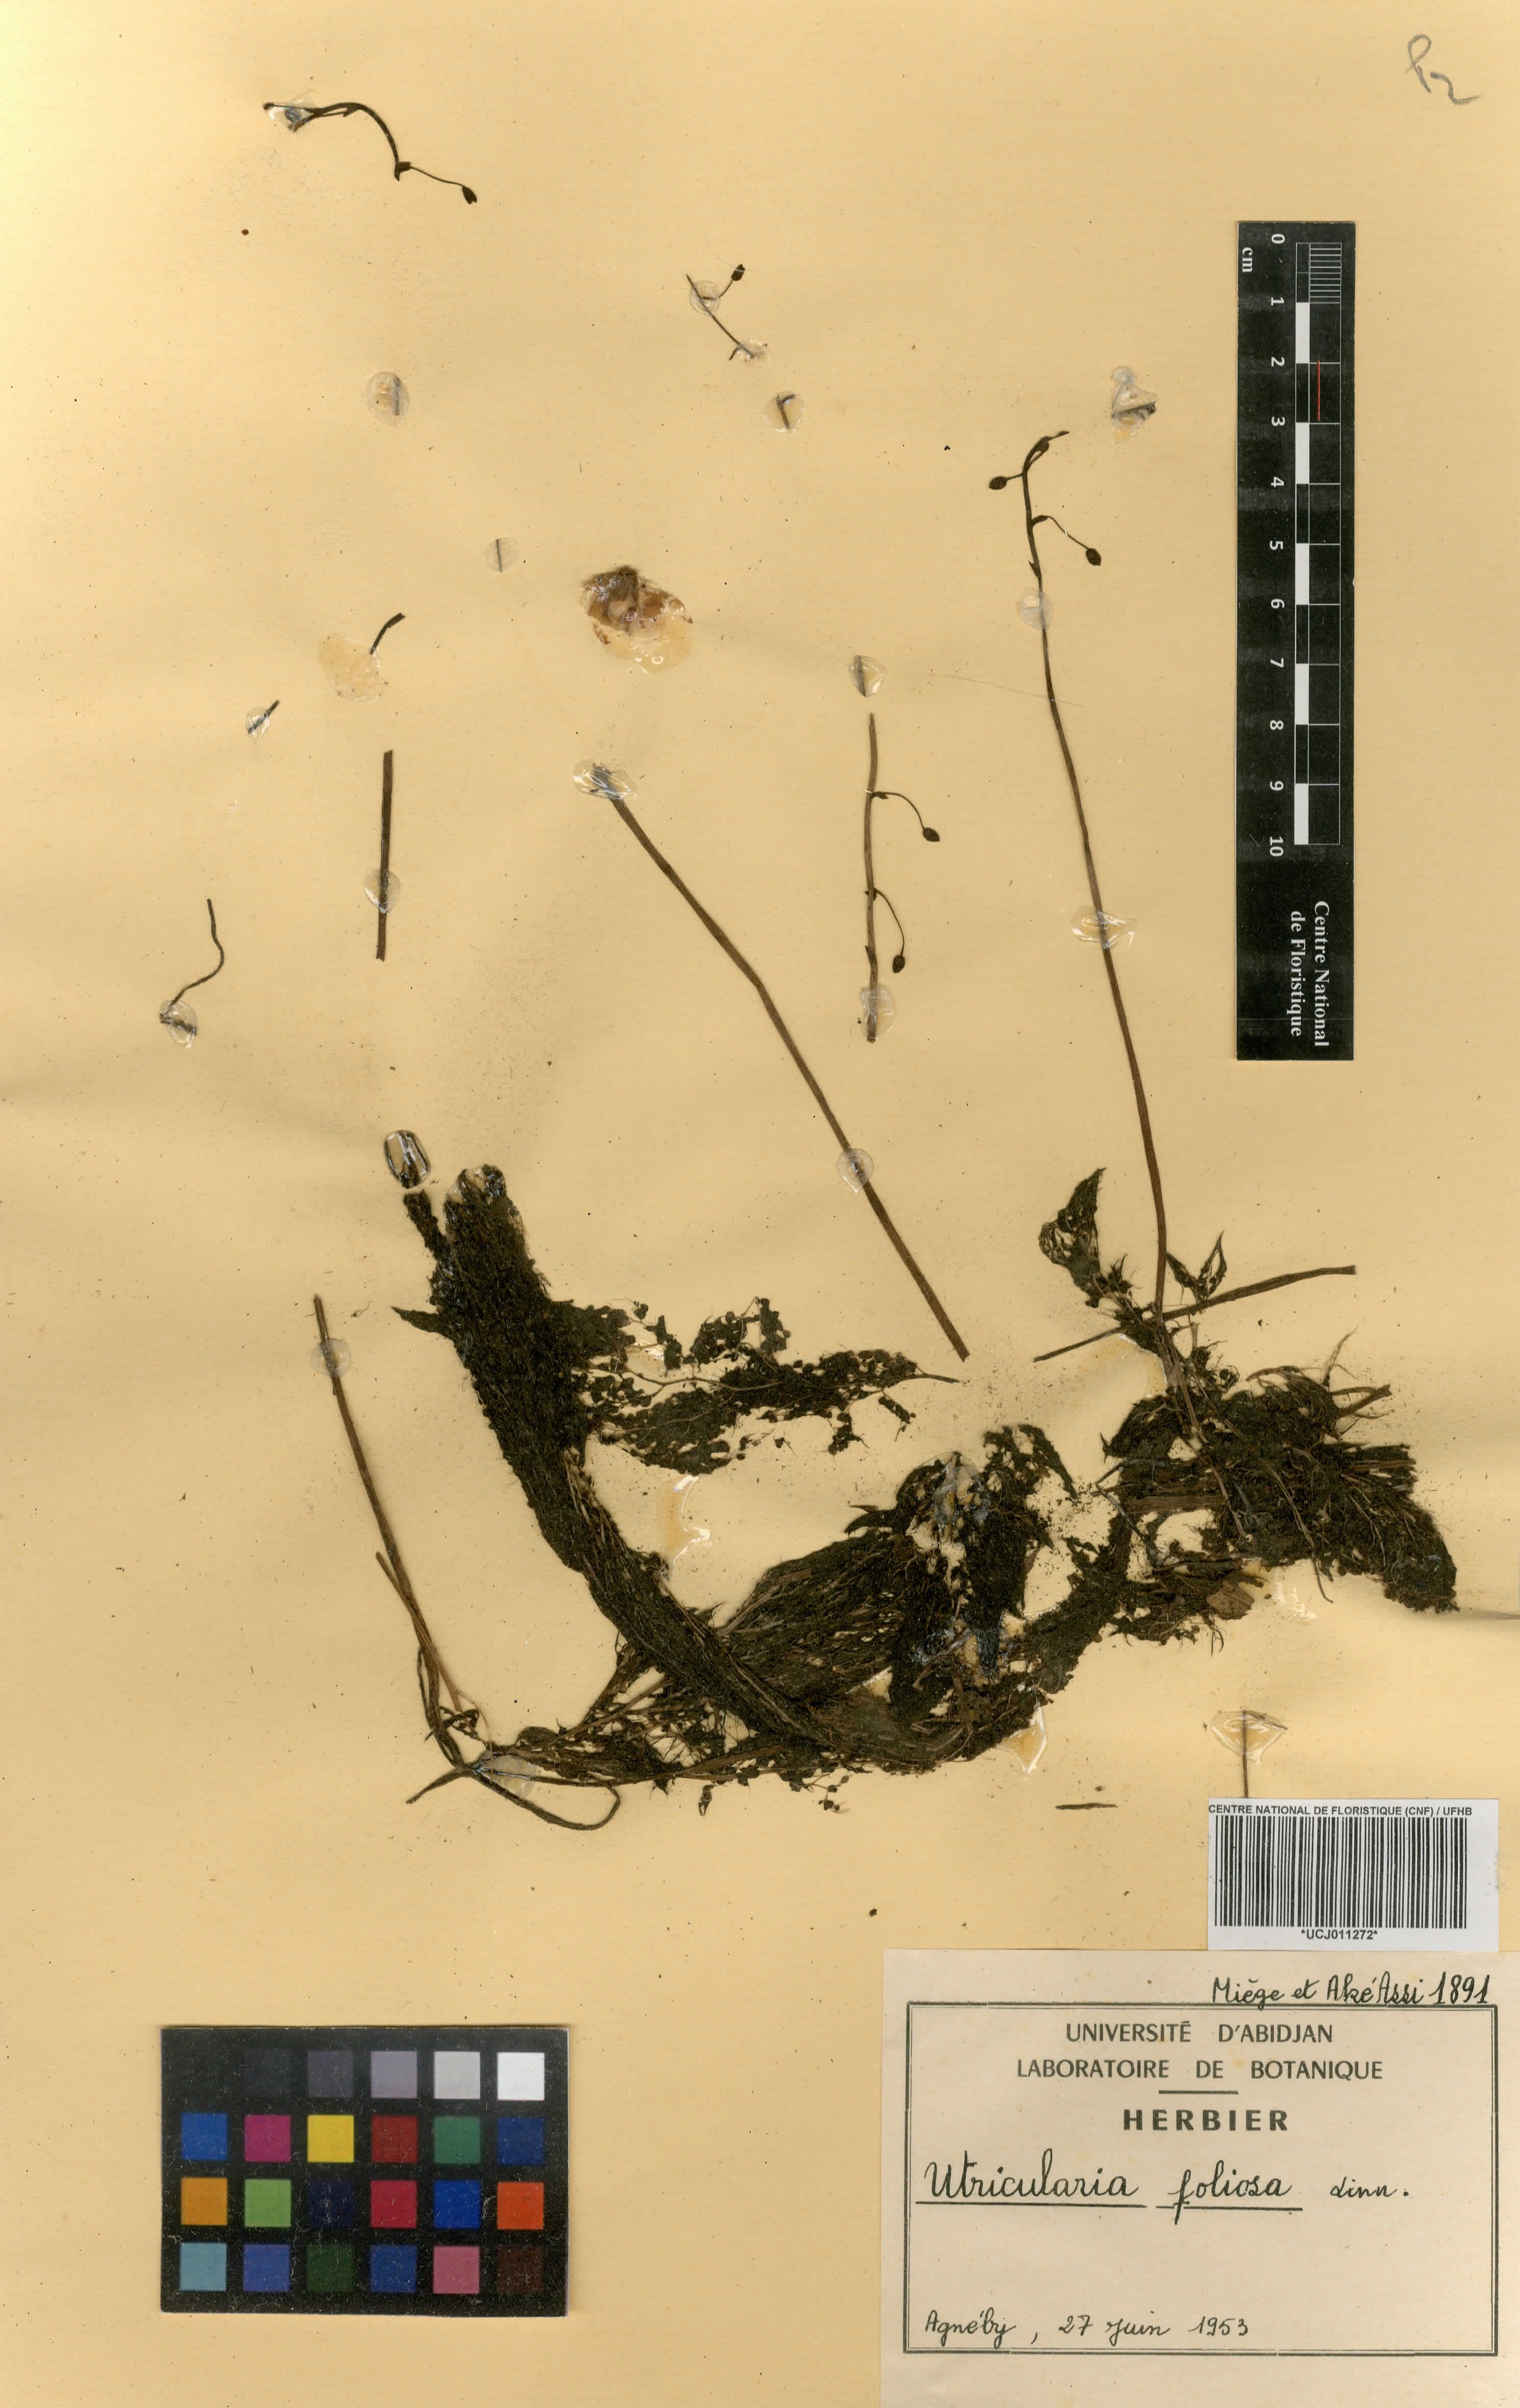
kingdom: Plantae
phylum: Tracheophyta
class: Magnoliopsida
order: Lamiales
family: Lentibulariaceae
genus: Utricularia
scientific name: Utricularia foliosa
